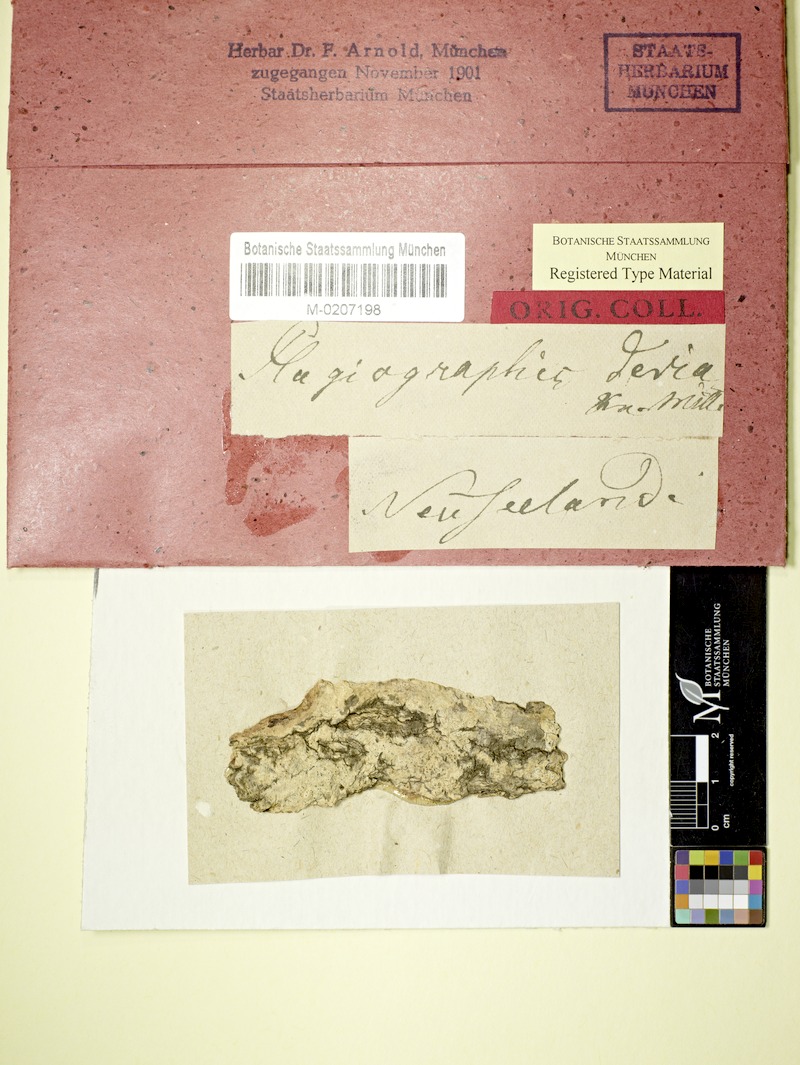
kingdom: Fungi
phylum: Ascomycota
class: Arthoniomycetes
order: Arthoniales
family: Opegraphaceae
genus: Opegrapha
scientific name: Opegrapha
